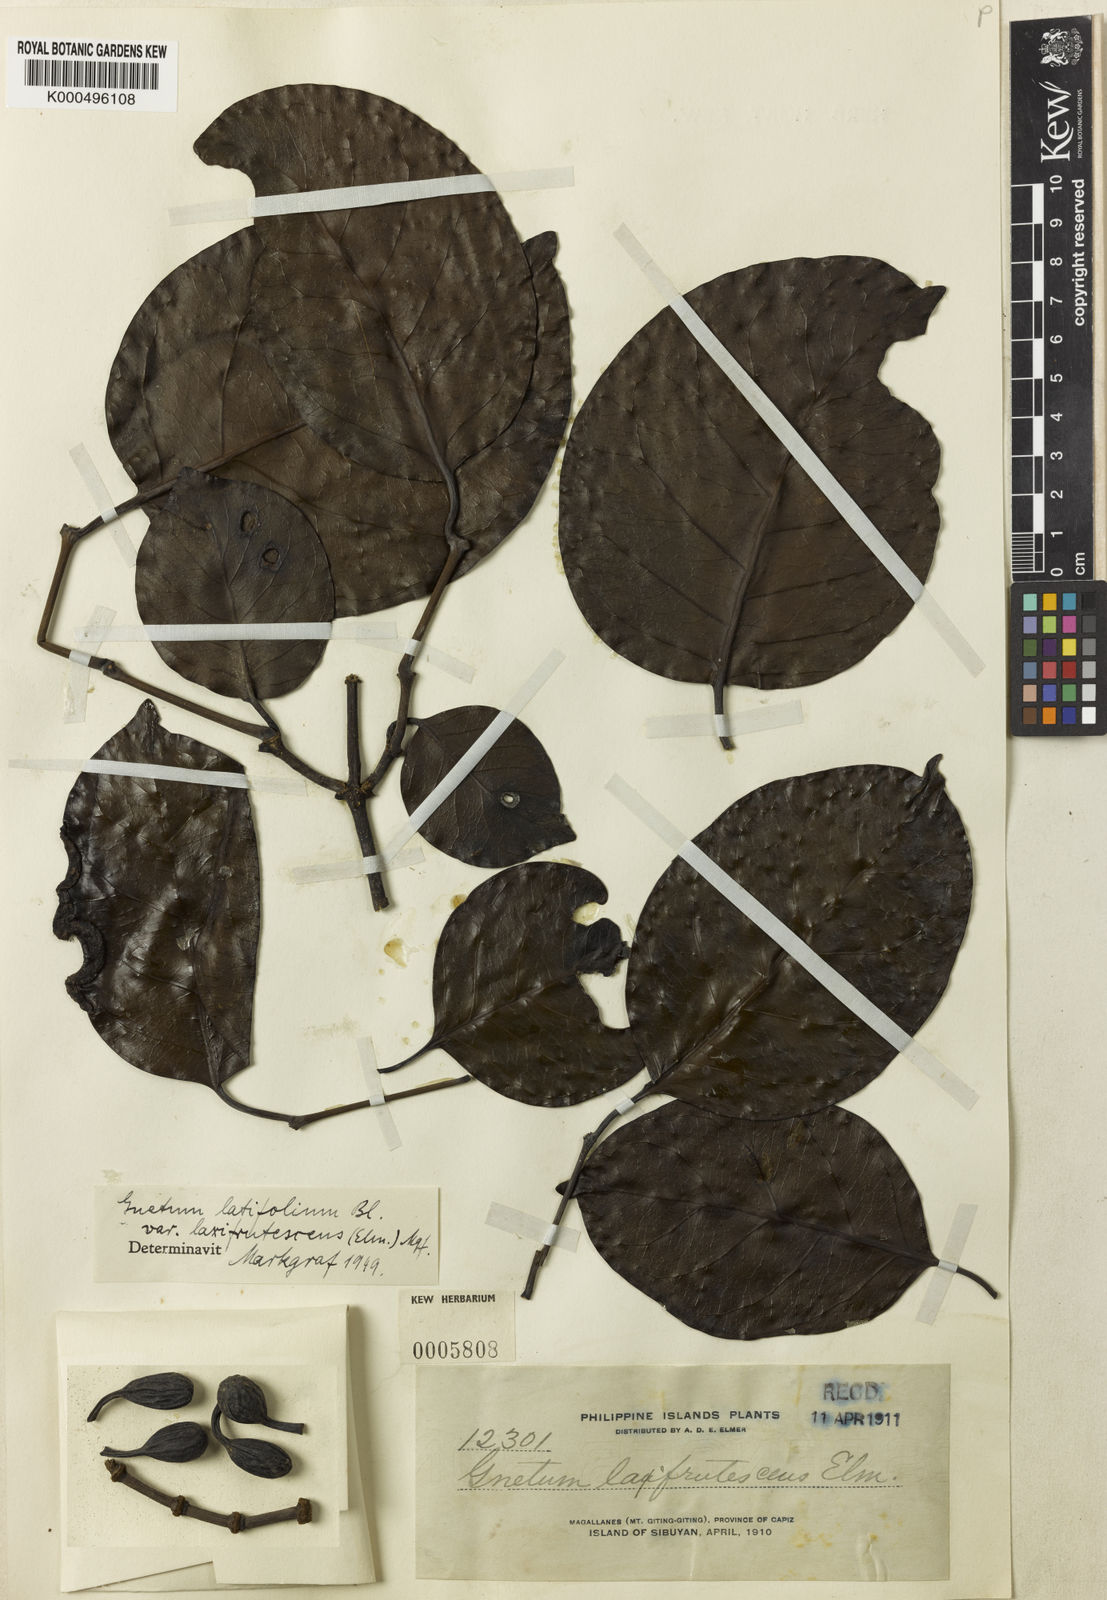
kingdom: Plantae
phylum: Tracheophyta
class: Gnetopsida
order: Gnetales
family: Gnetaceae
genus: Gnetum
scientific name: Gnetum latifolium
